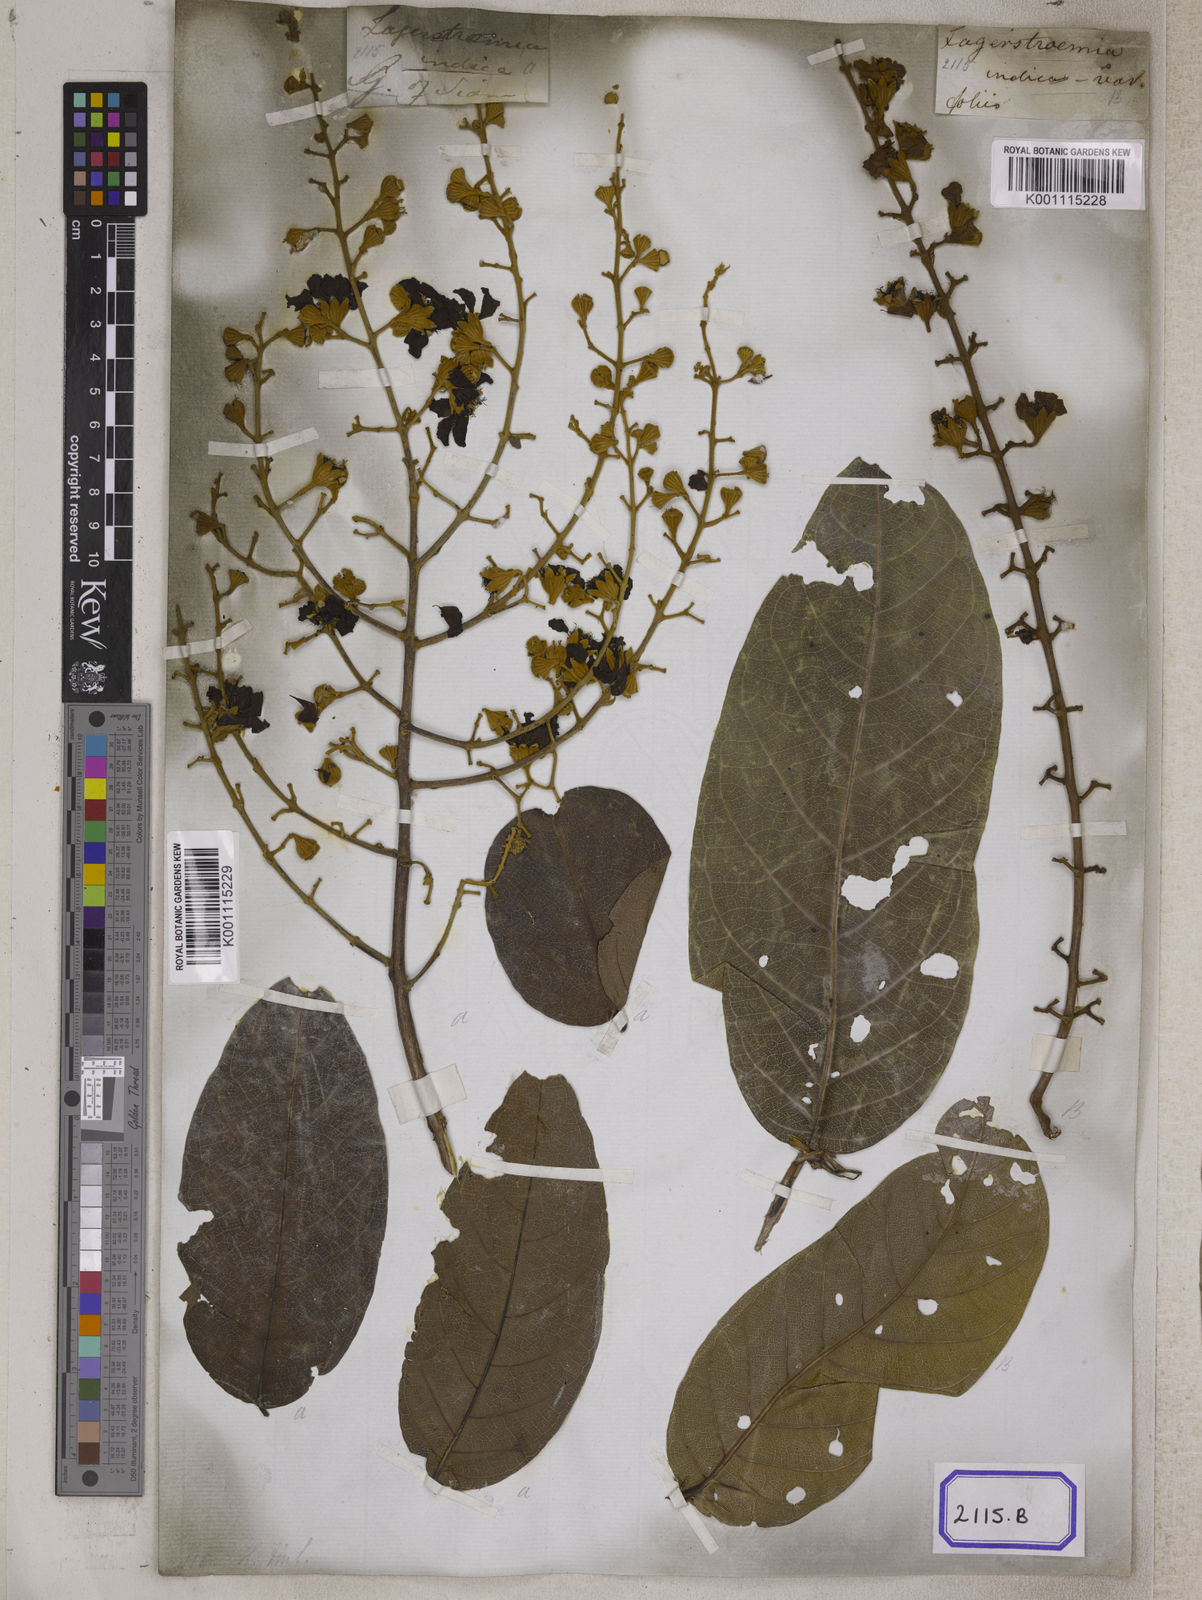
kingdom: Plantae
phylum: Tracheophyta
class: Magnoliopsida
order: Myrtales
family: Lythraceae
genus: Lagerstroemia
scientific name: Lagerstroemia floribunda
